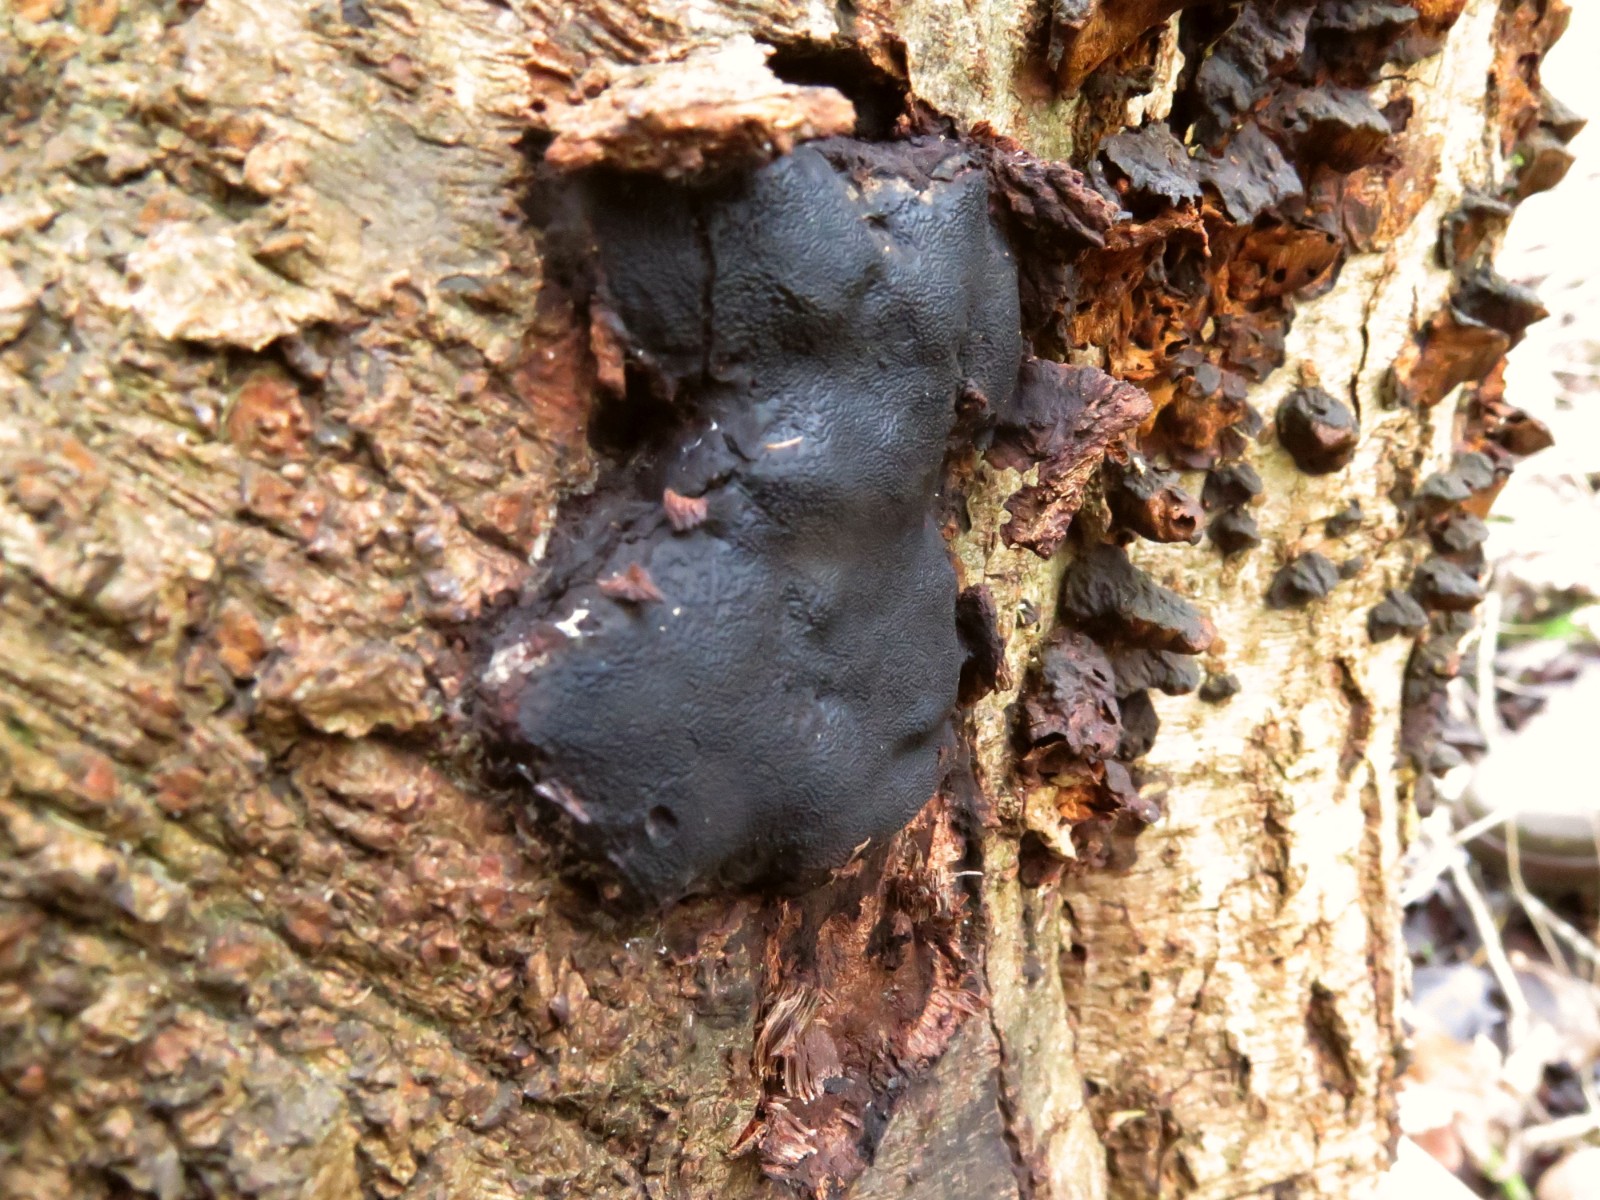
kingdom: Fungi
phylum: Ascomycota
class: Sordariomycetes
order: Boliniales
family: Boliniaceae
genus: Camarops
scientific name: Camarops polysperma
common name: elle-kulsnegl
